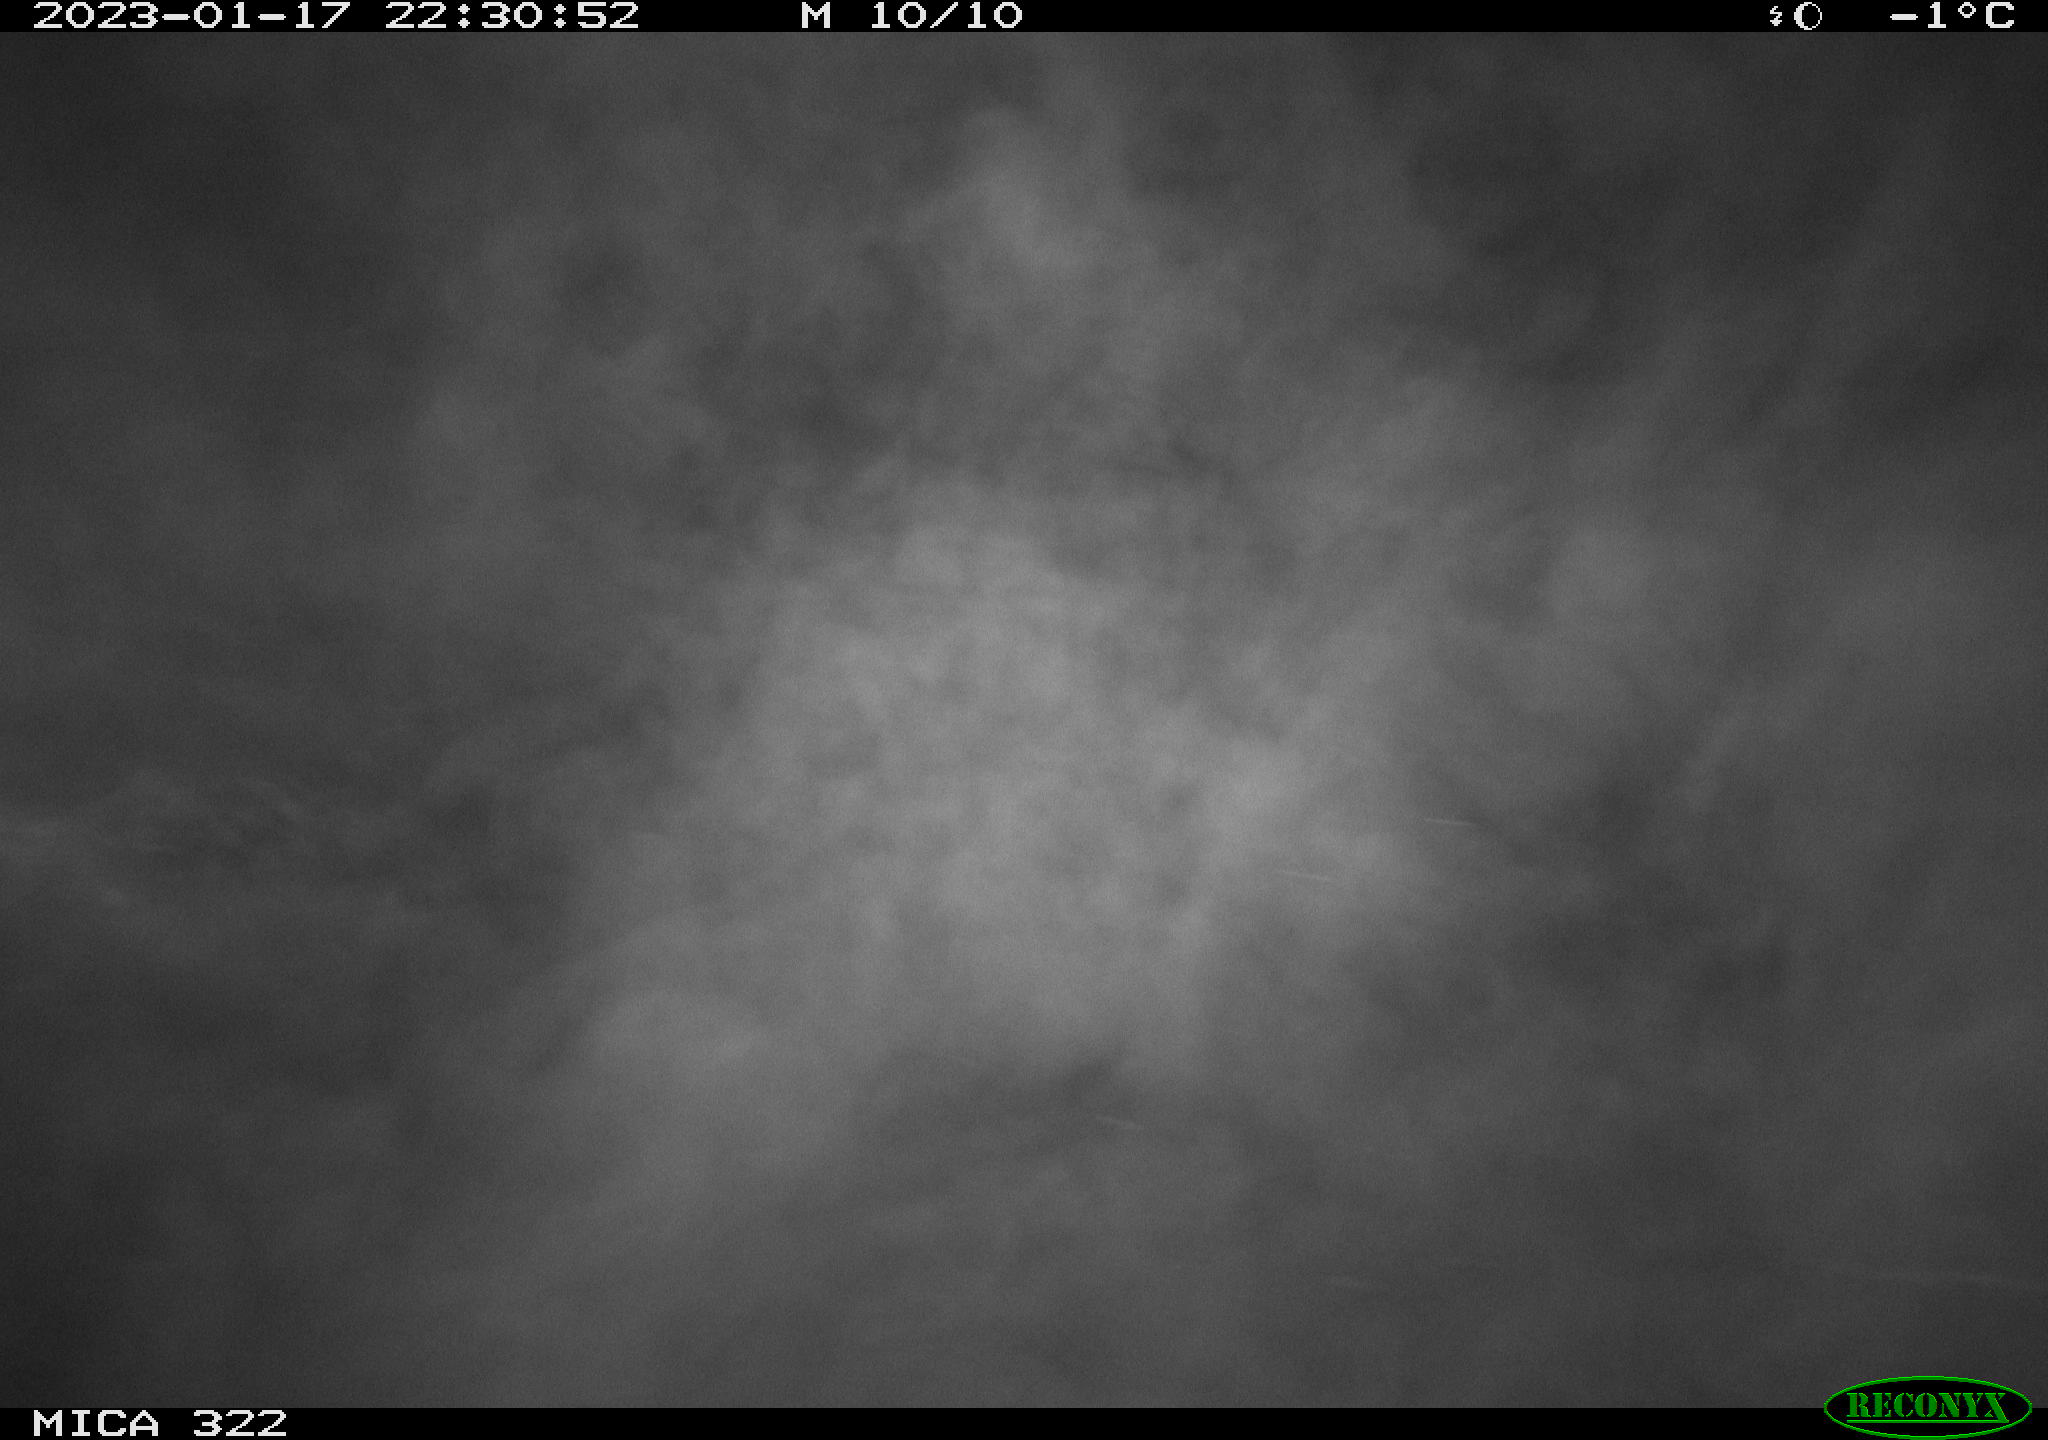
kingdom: Animalia
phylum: Chordata
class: Aves
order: Anseriformes
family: Anatidae
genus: Anas
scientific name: Anas
